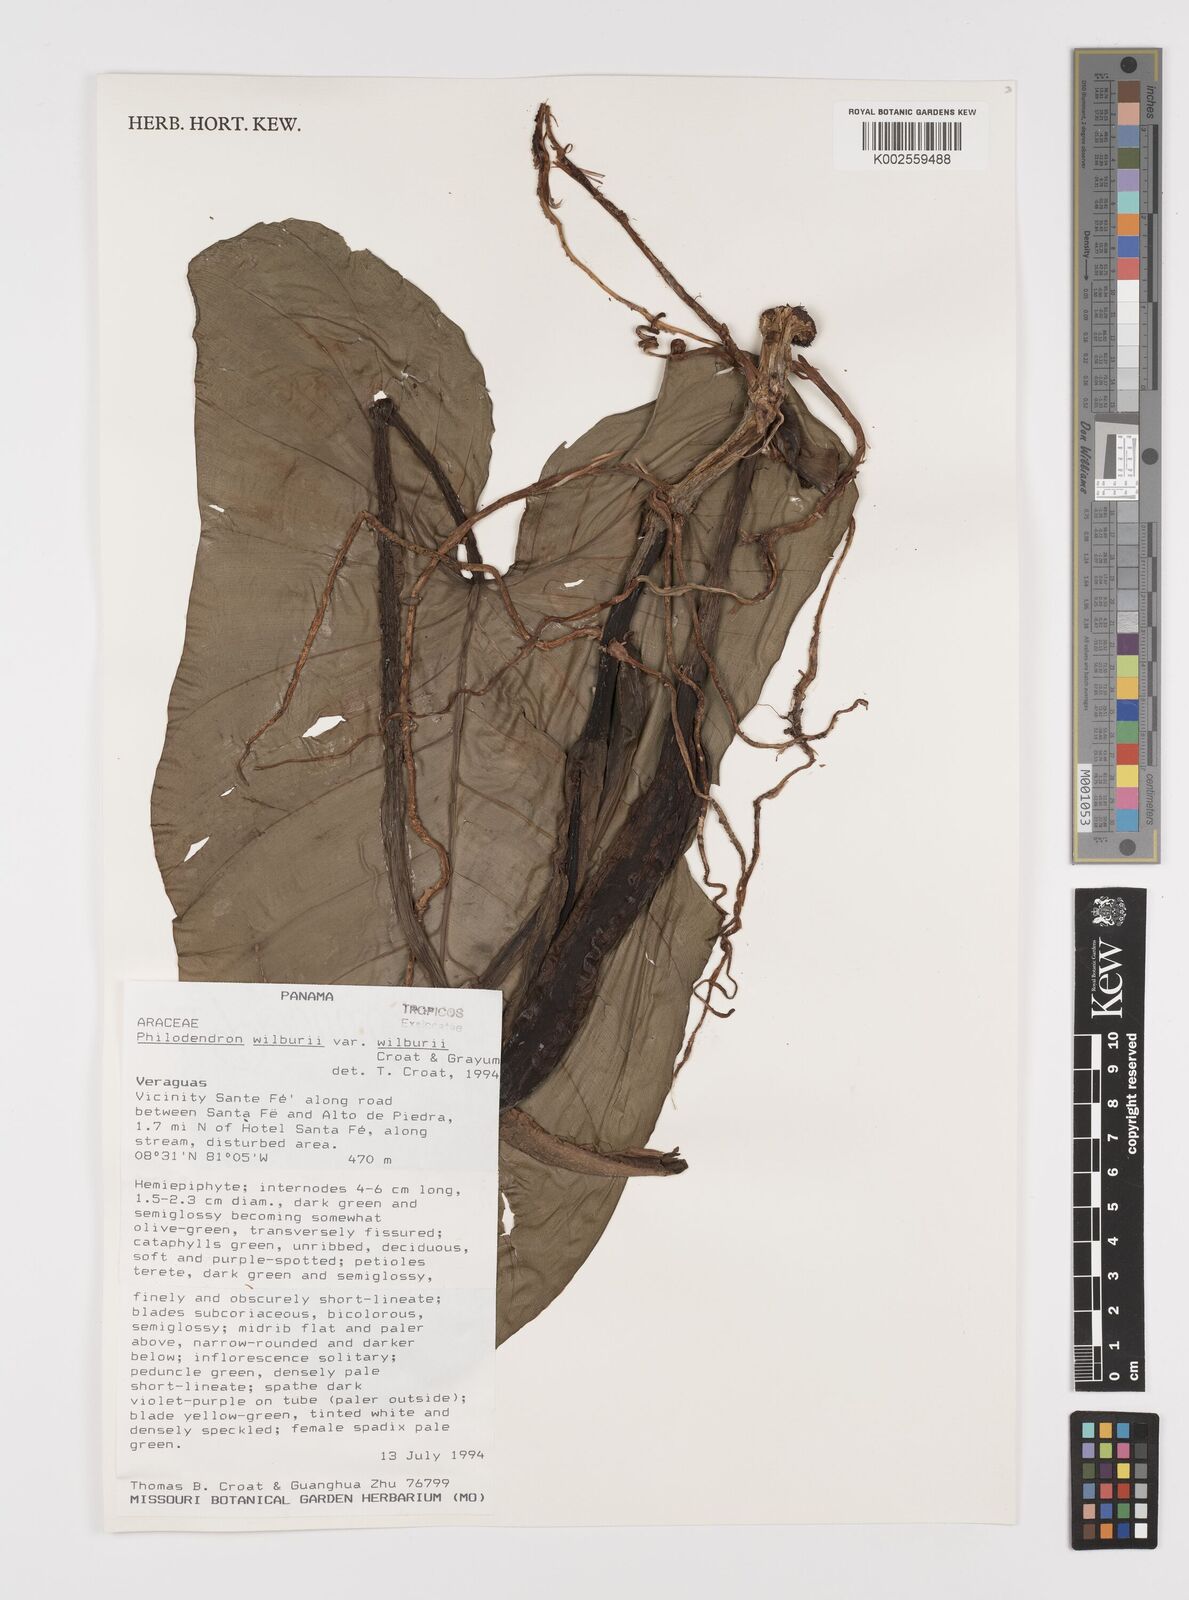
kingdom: Plantae
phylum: Tracheophyta
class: Liliopsida
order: Alismatales
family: Araceae
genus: Philodendron
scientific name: Philodendron wilburii
